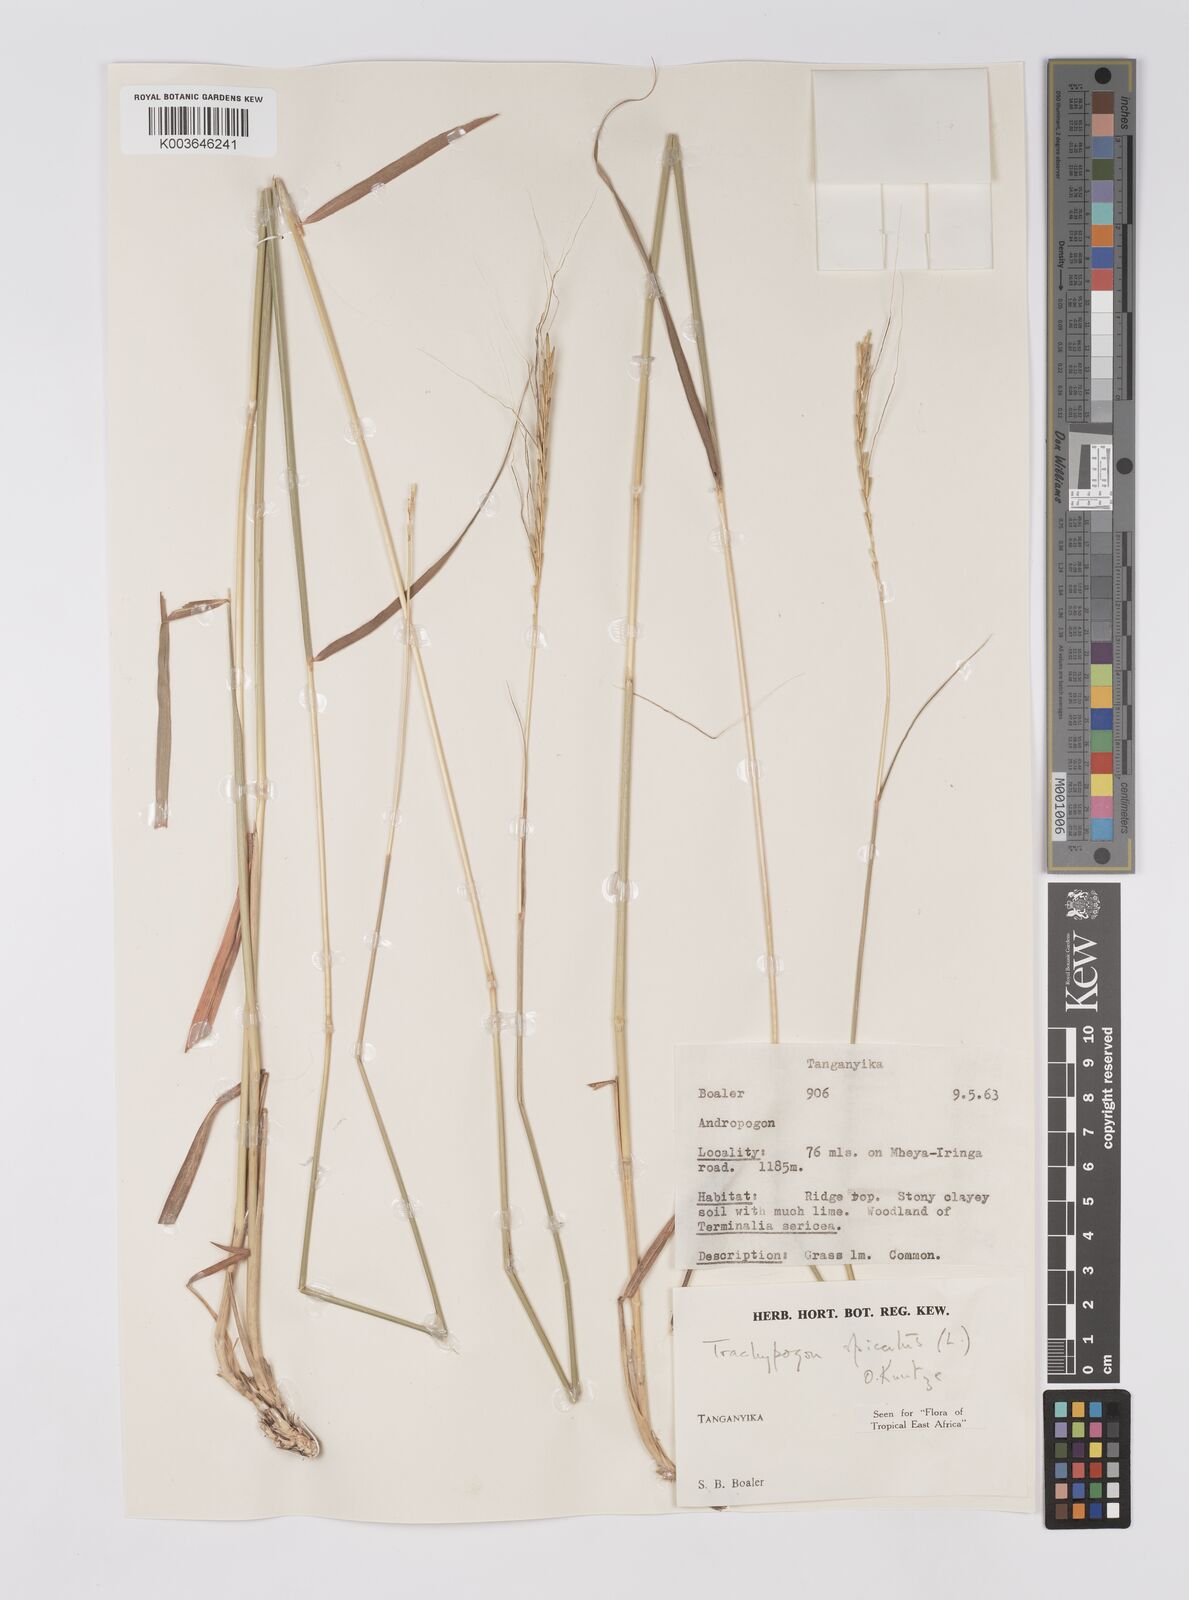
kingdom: Plantae
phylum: Tracheophyta
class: Liliopsida
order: Poales
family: Poaceae
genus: Trachypogon
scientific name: Trachypogon spicatus
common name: Crinkle-awn
